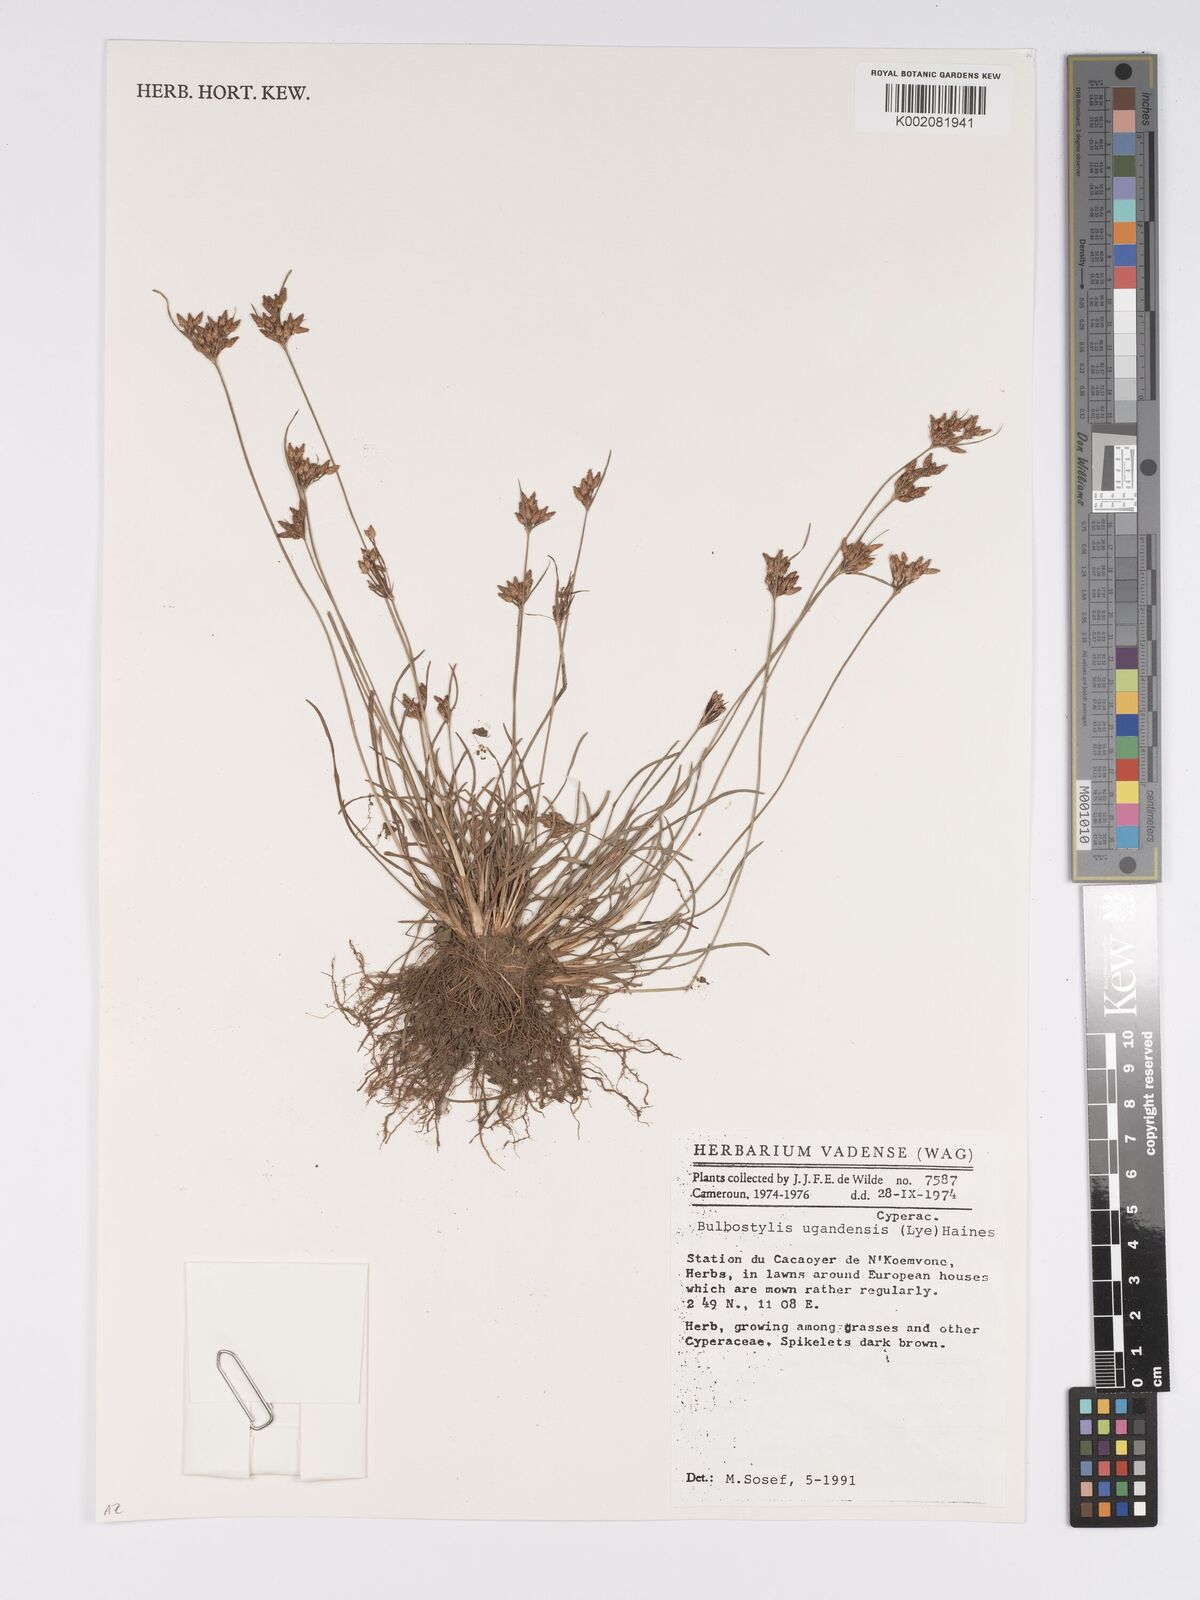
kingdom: Plantae
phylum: Tracheophyta
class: Liliopsida
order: Poales
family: Cyperaceae
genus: Bulbostylis
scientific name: Bulbostylis ugandensis
